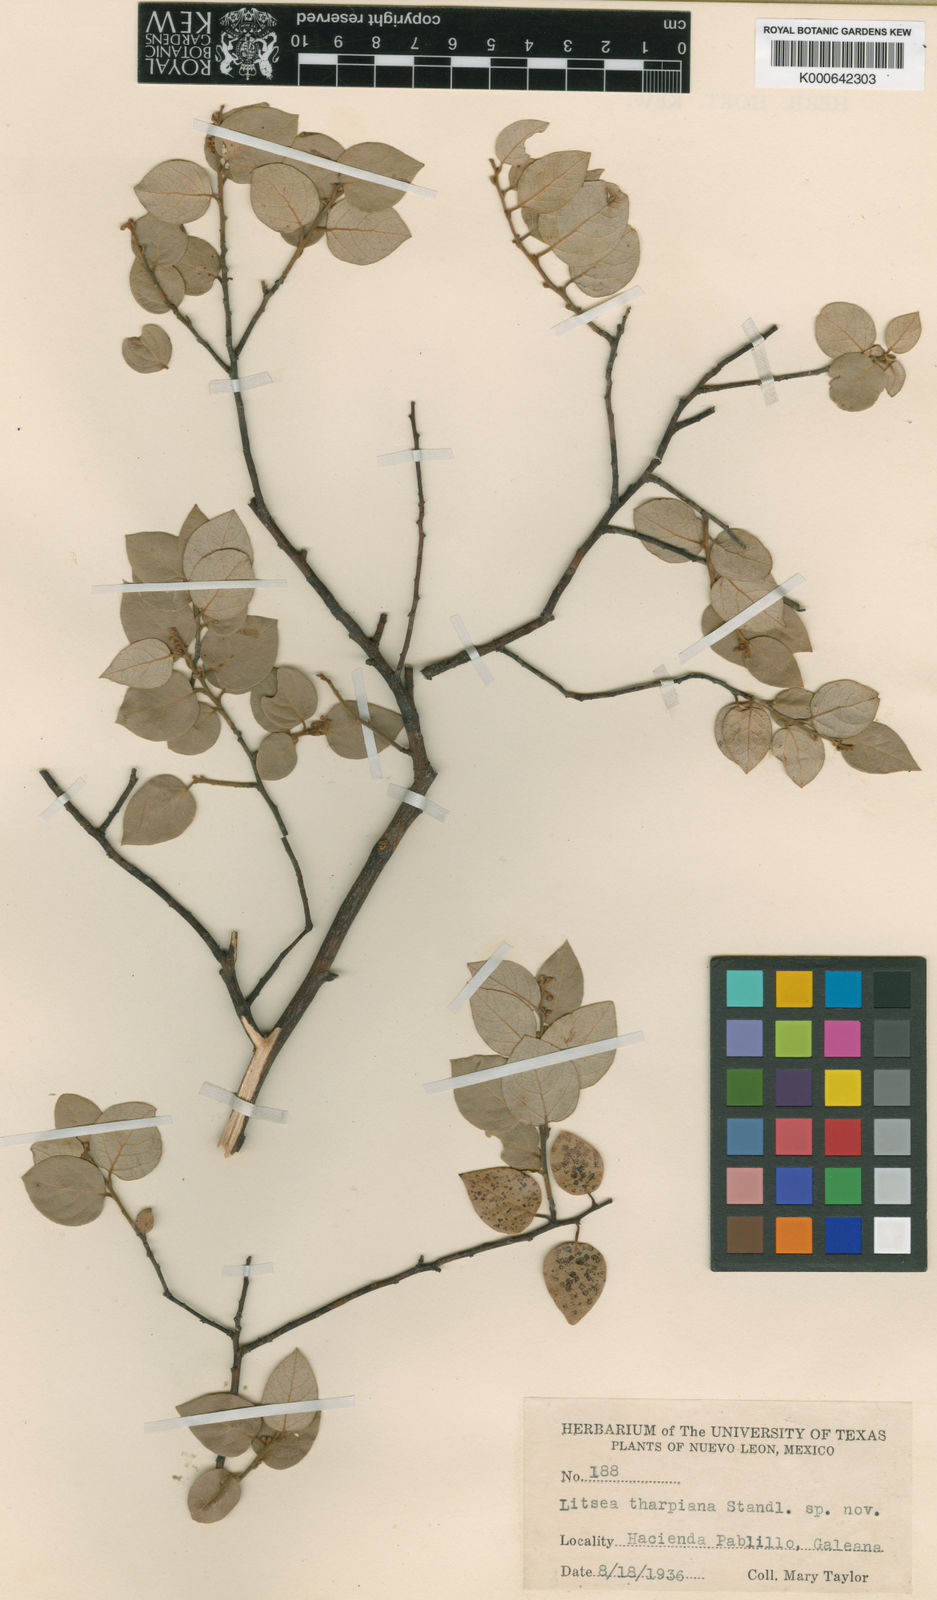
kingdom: Plantae
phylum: Tracheophyta
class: Magnoliopsida
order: Laurales
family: Lauraceae
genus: Litsea
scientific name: Litsea tharpiana
